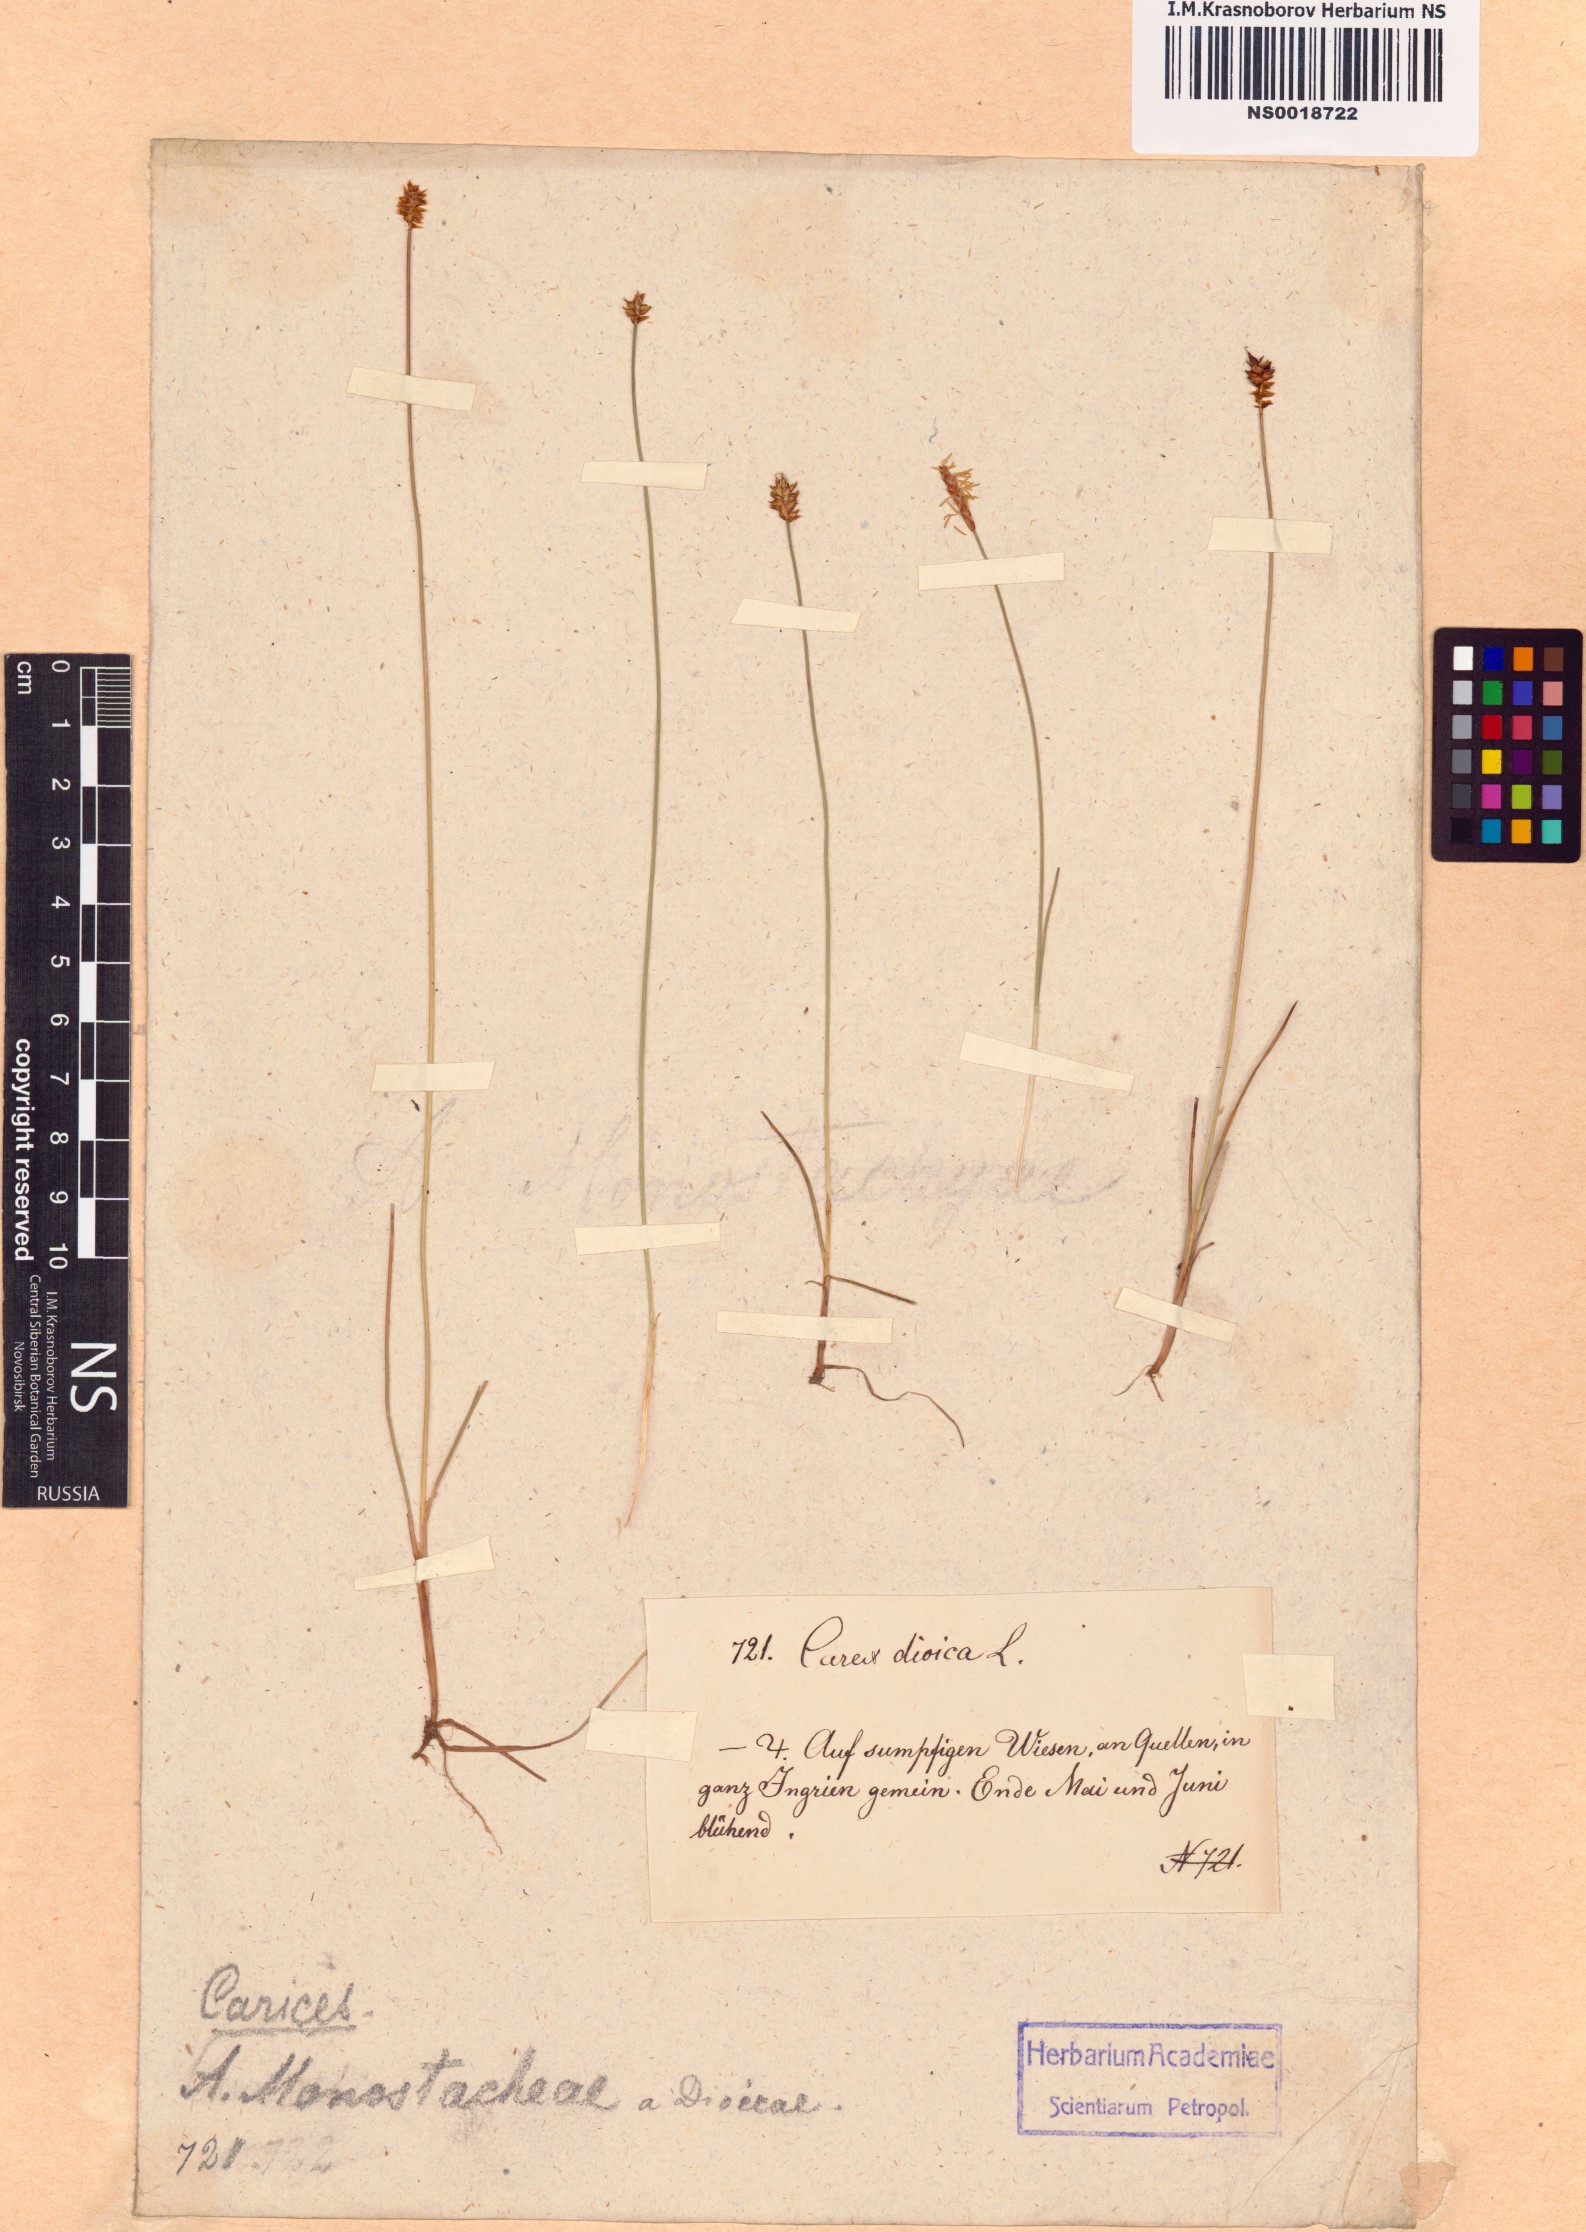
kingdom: Plantae
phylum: Tracheophyta
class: Liliopsida
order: Poales
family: Cyperaceae
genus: Carex
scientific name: Carex dioica
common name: Dioecious sedge
